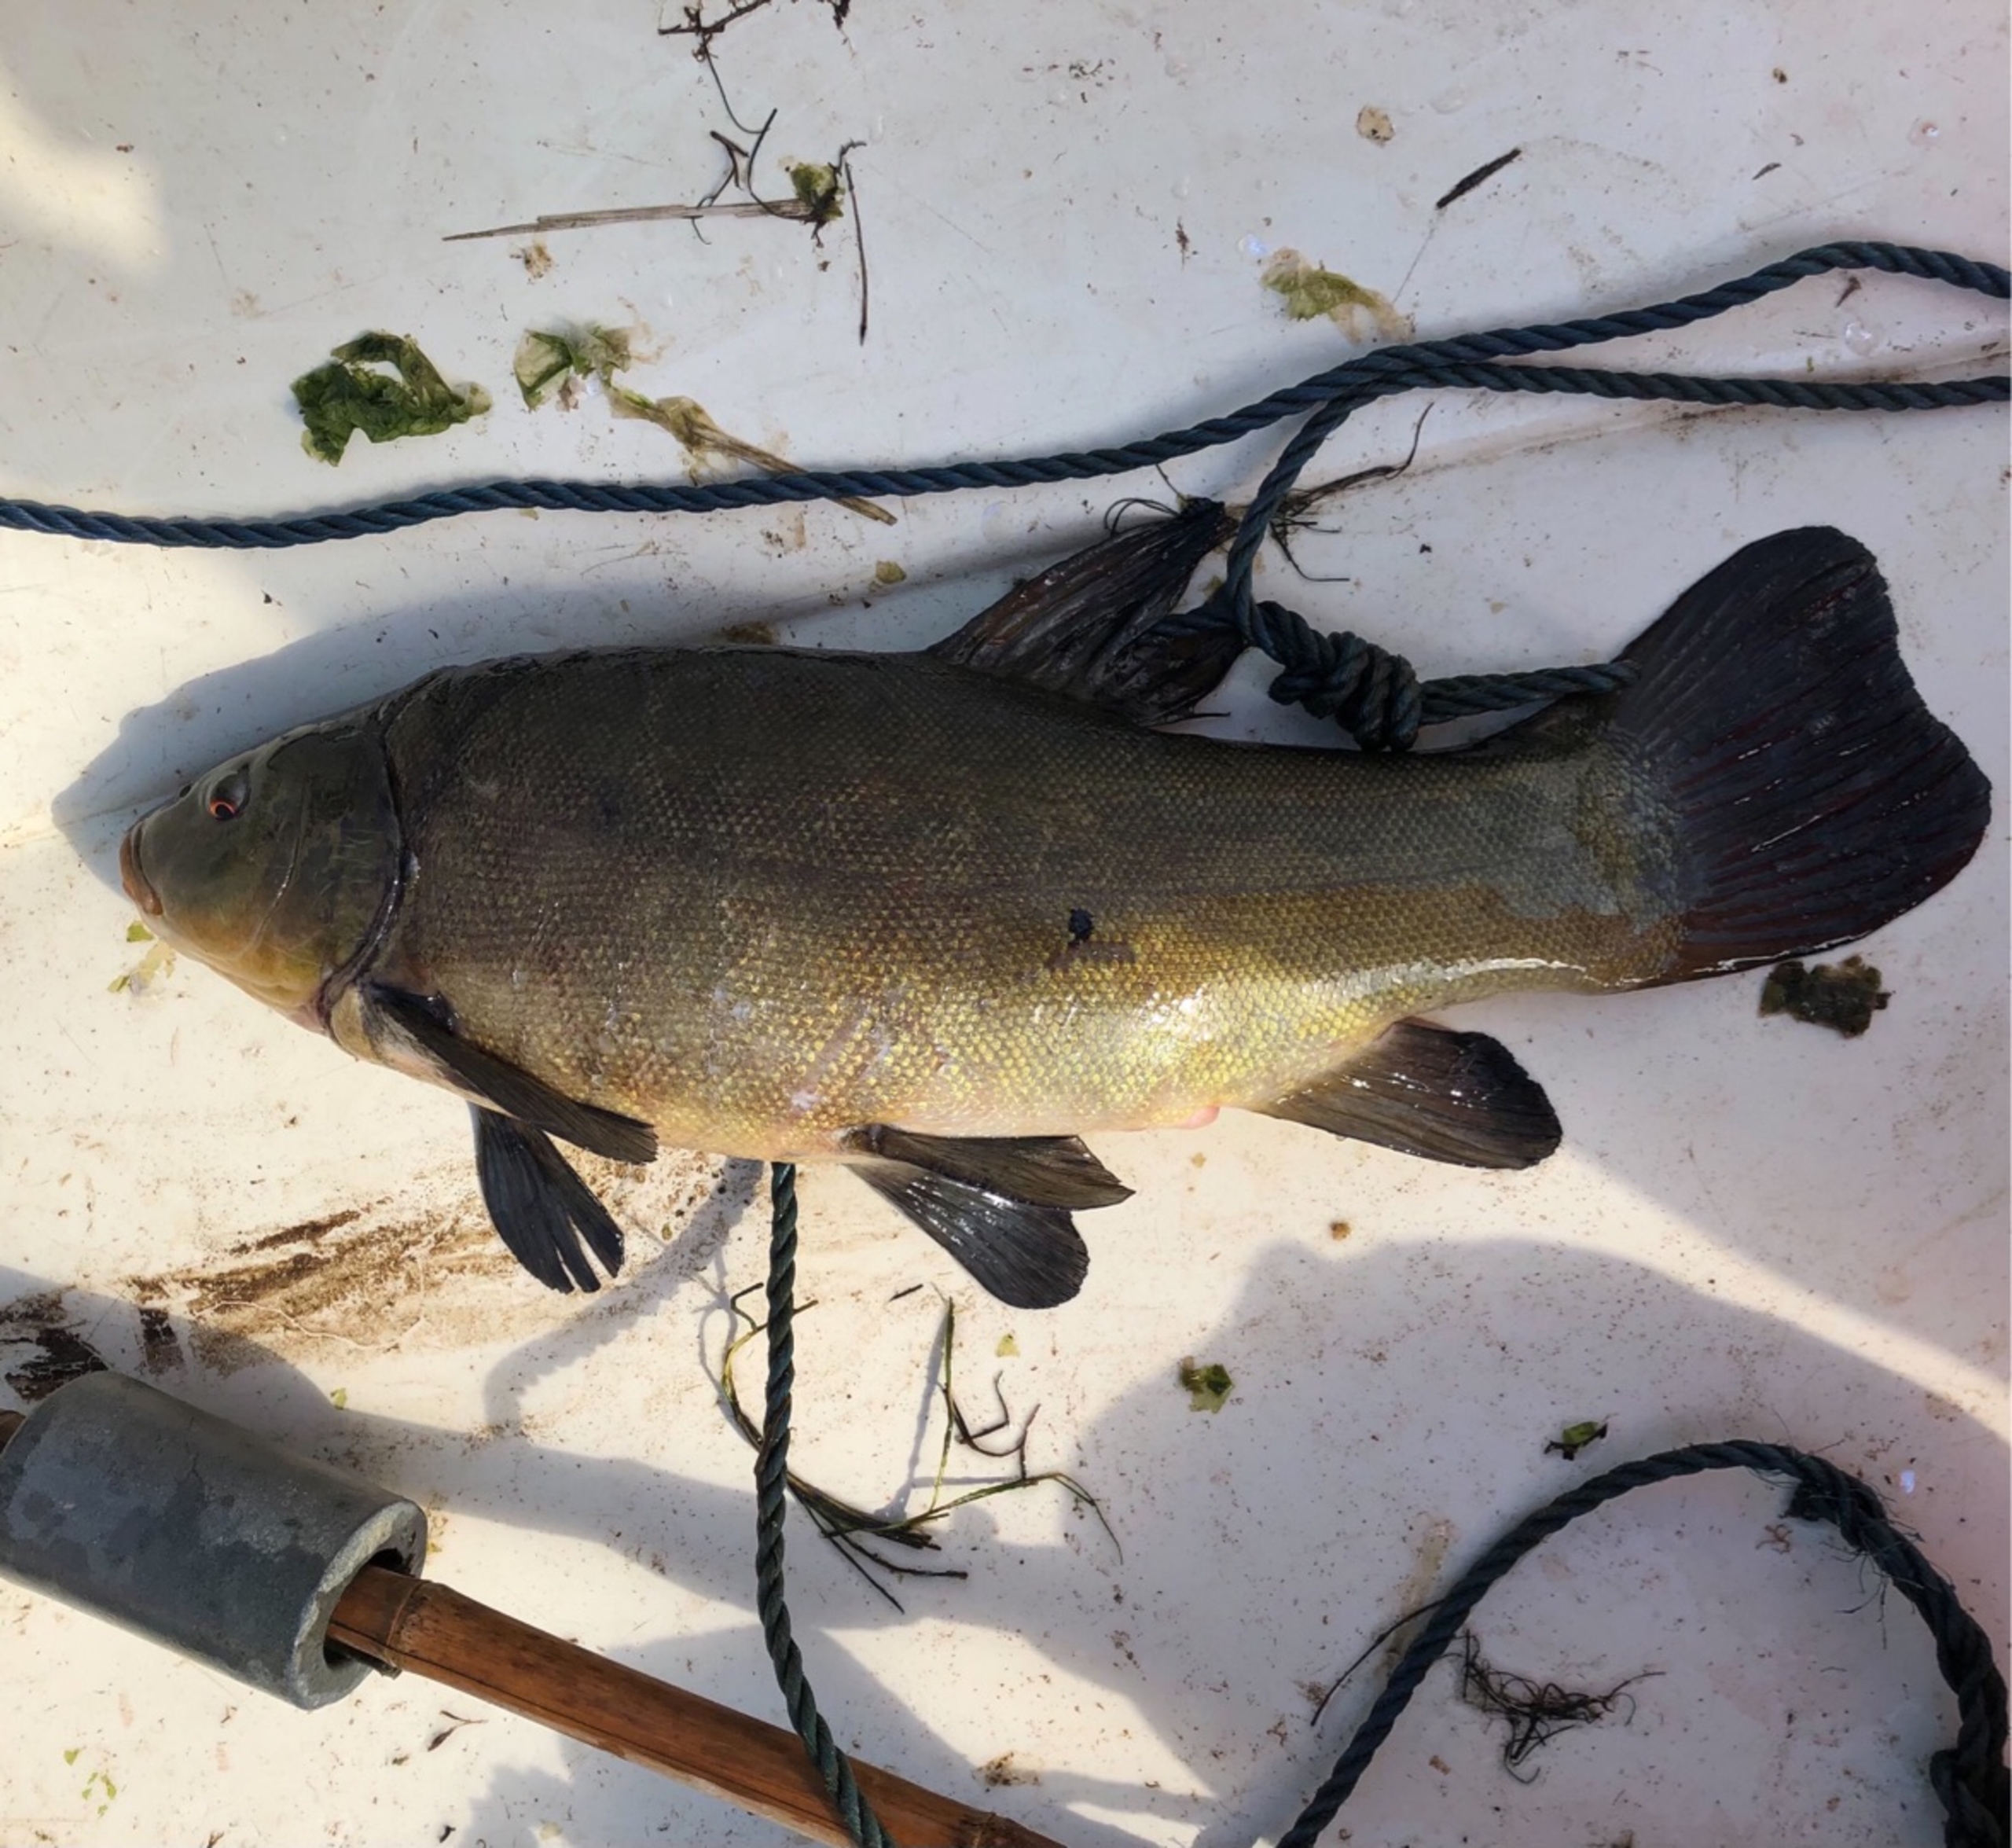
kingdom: Animalia
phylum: Chordata
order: Cypriniformes
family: Cyprinidae
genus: Tinca
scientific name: Tinca tinca
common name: Suder
